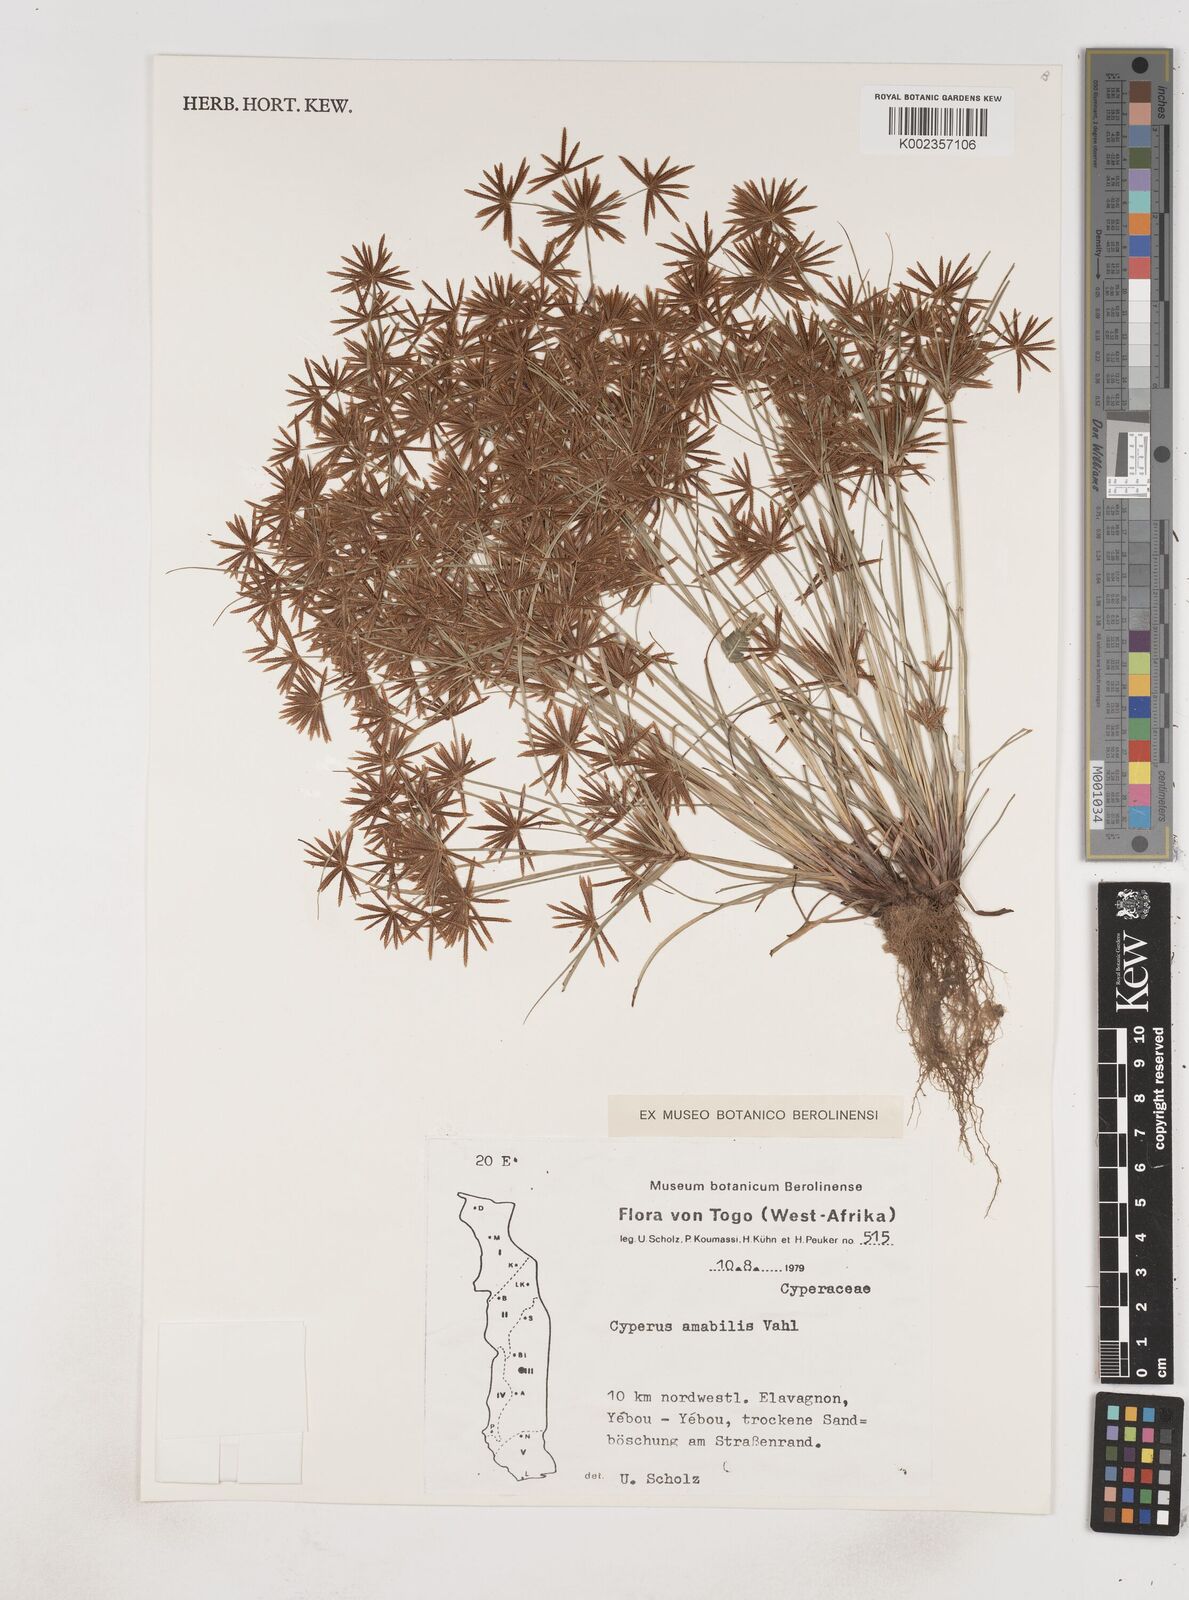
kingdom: Plantae
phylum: Tracheophyta
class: Liliopsida
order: Poales
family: Cyperaceae
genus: Cyperus
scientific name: Cyperus amabilis
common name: Foothill flat sedge
